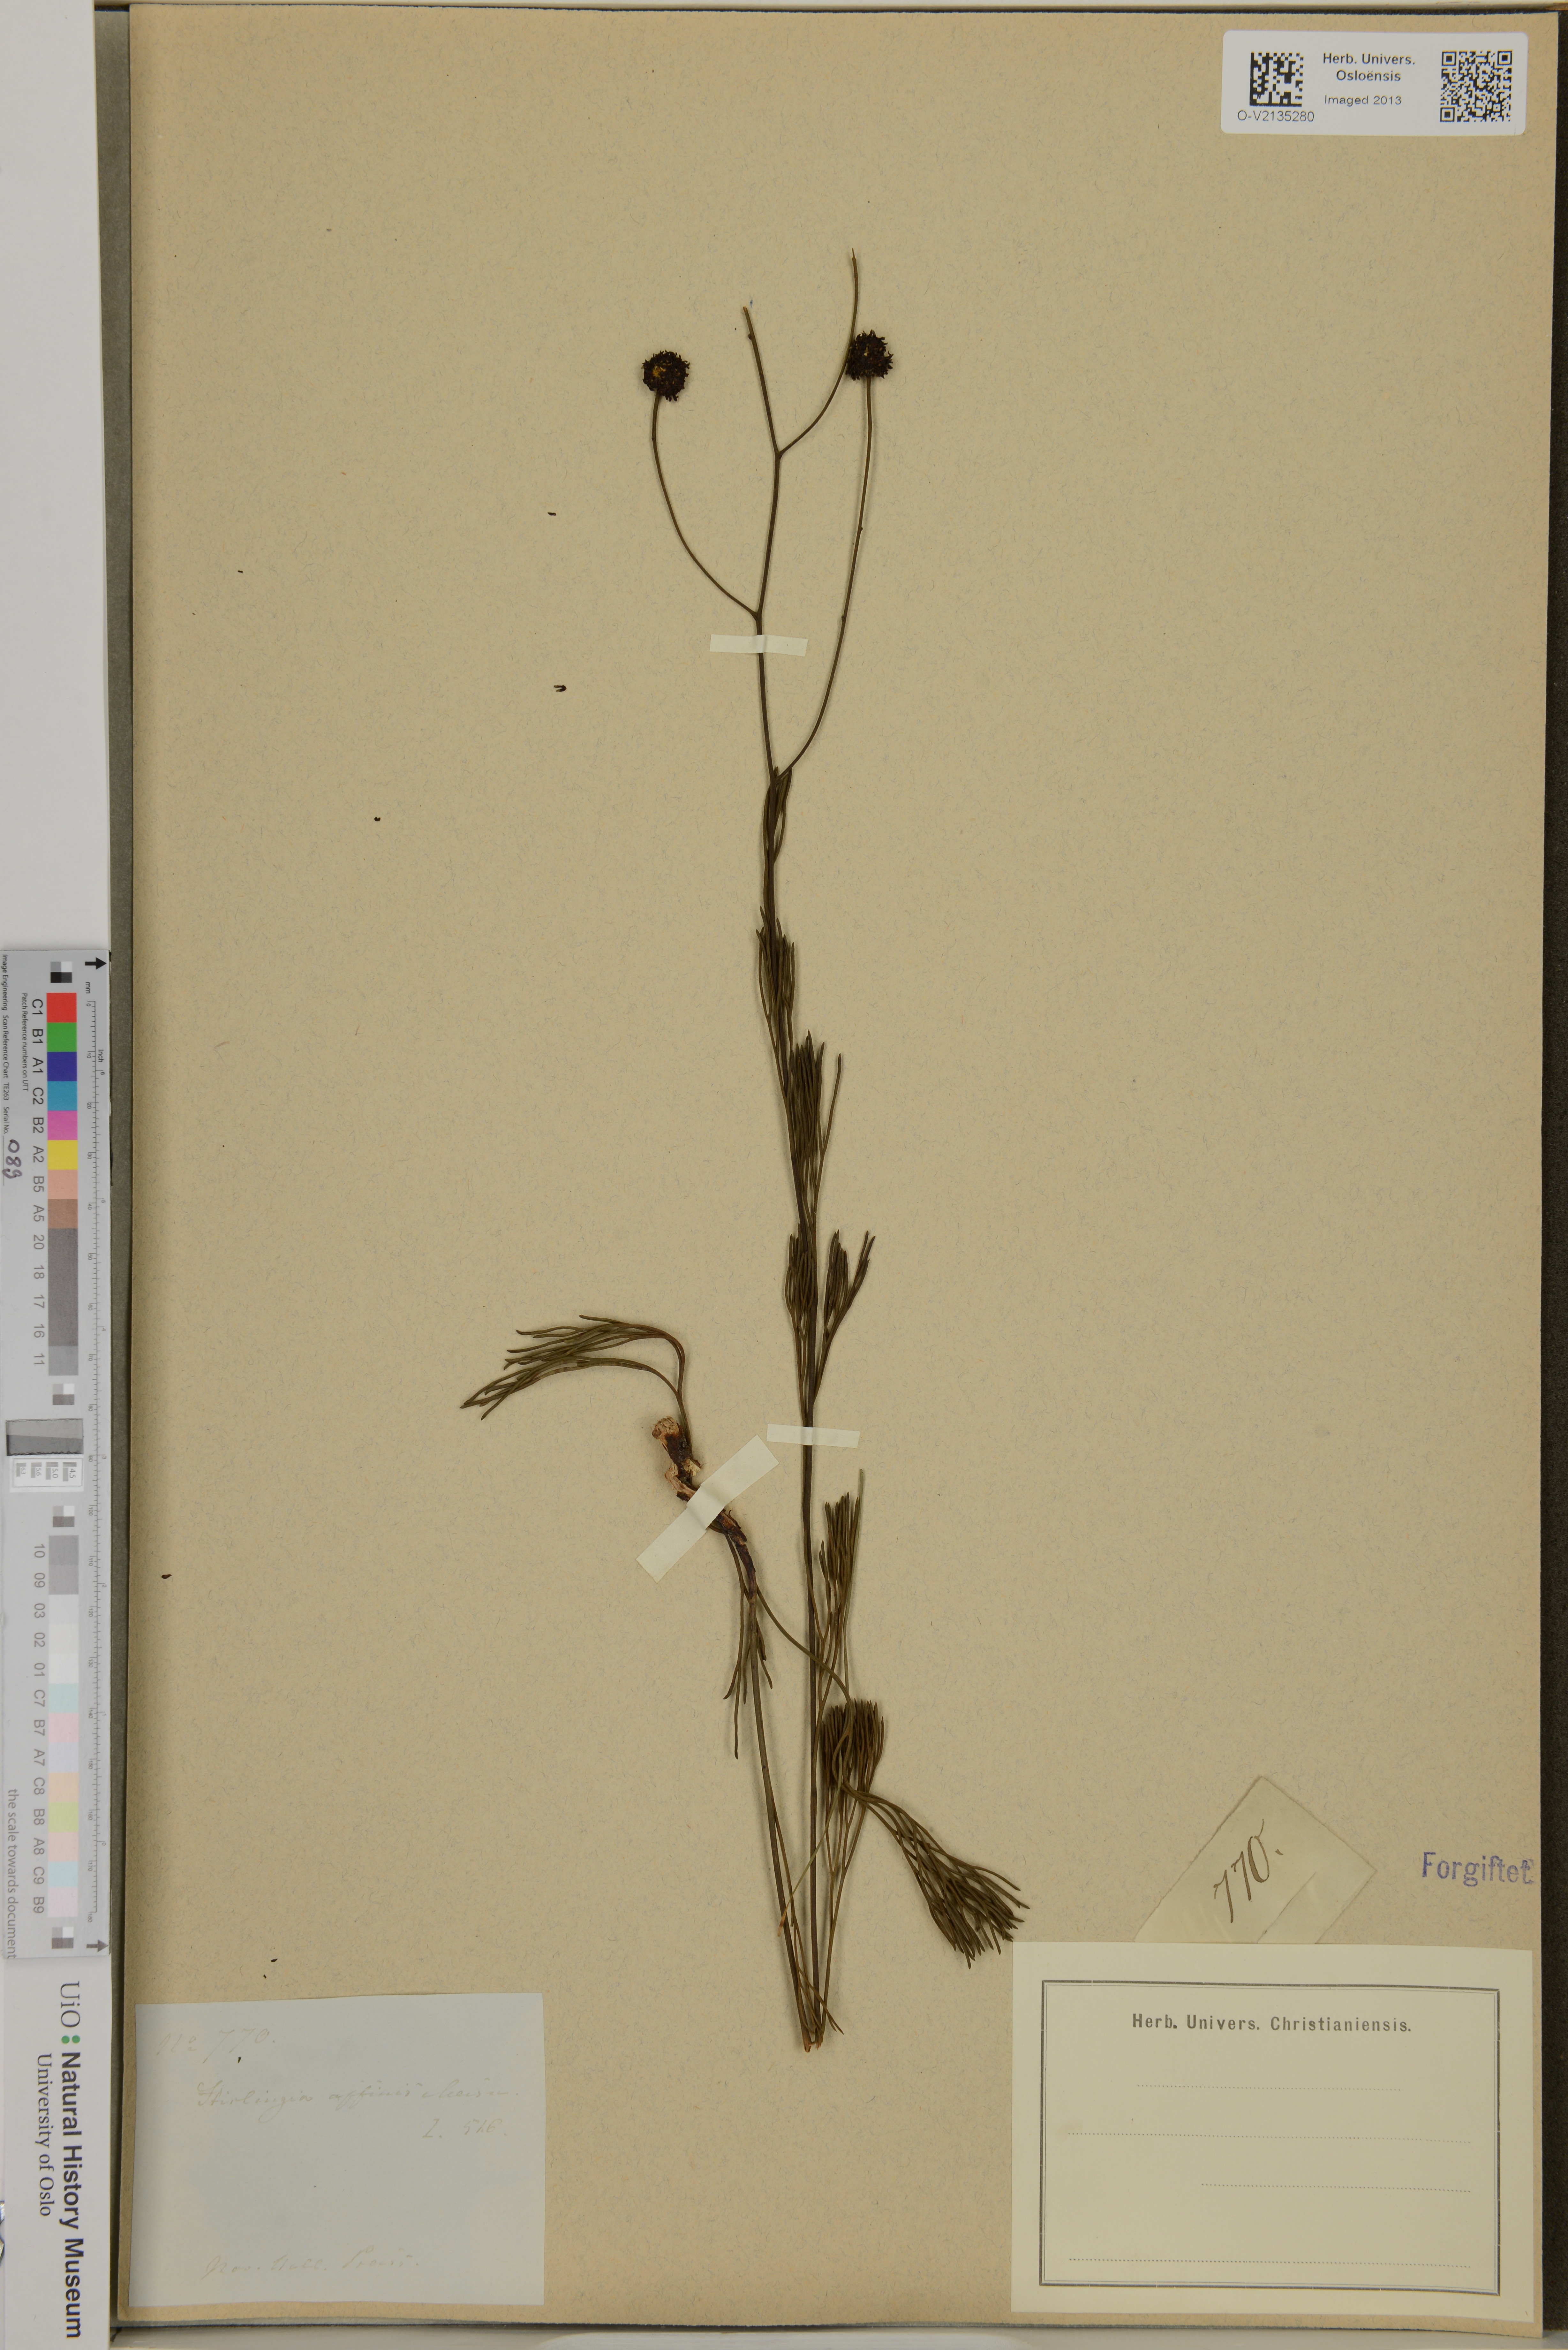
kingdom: Plantae
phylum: Tracheophyta
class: Magnoliopsida
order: Proteales
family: Proteaceae
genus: Stirlingia
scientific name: Stirlingia anethifolia
